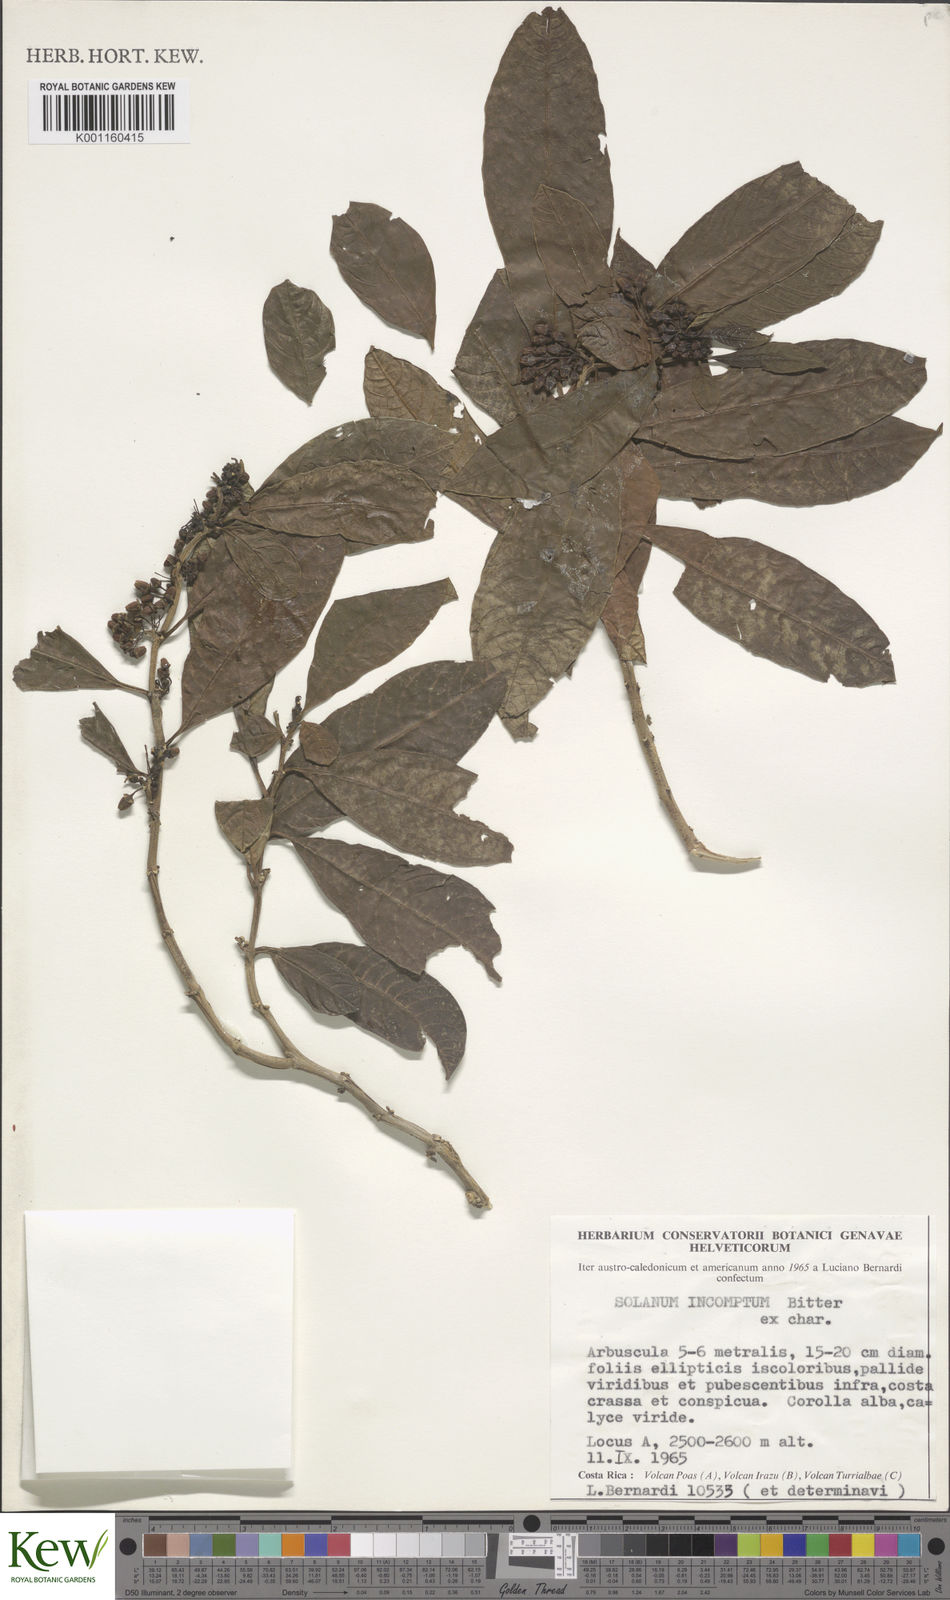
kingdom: Plantae
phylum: Tracheophyta
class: Magnoliopsida
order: Solanales
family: Solanaceae
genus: Solanum
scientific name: Solanum incomptum
